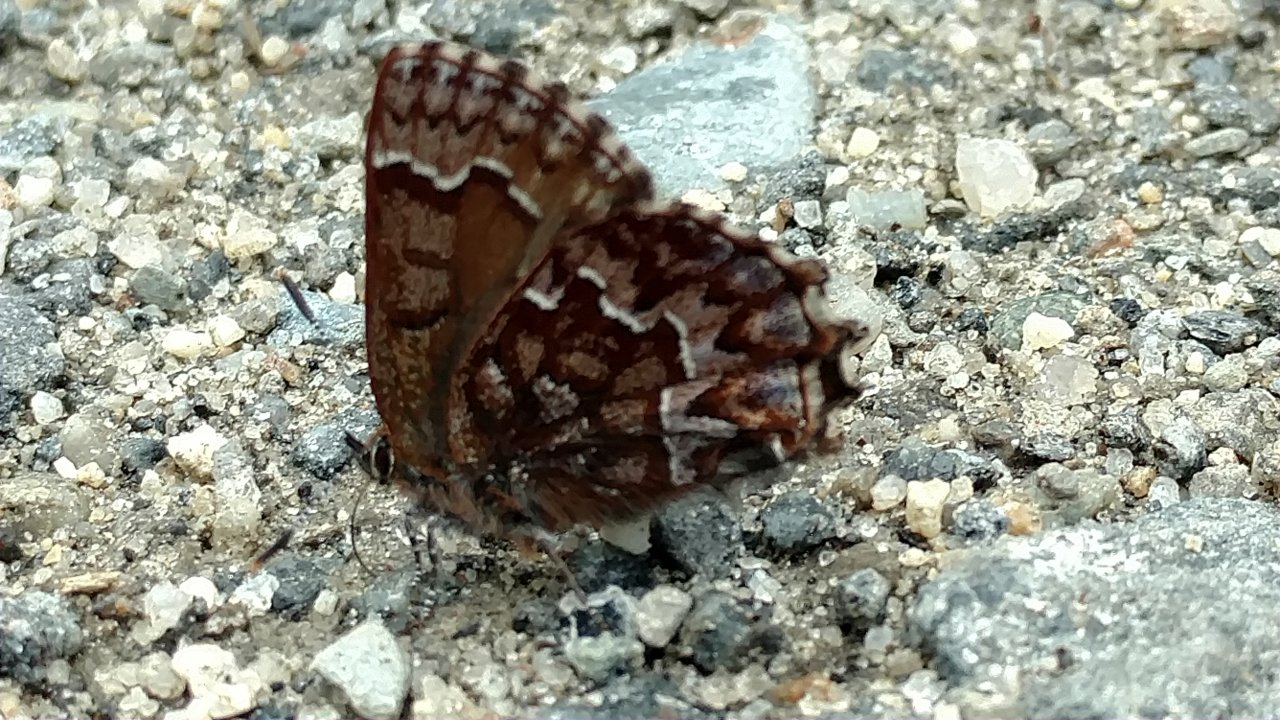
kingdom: Animalia
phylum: Arthropoda
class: Insecta
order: Lepidoptera
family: Lycaenidae
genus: Incisalia
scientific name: Incisalia niphon
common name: Eastern Pine Elfin
